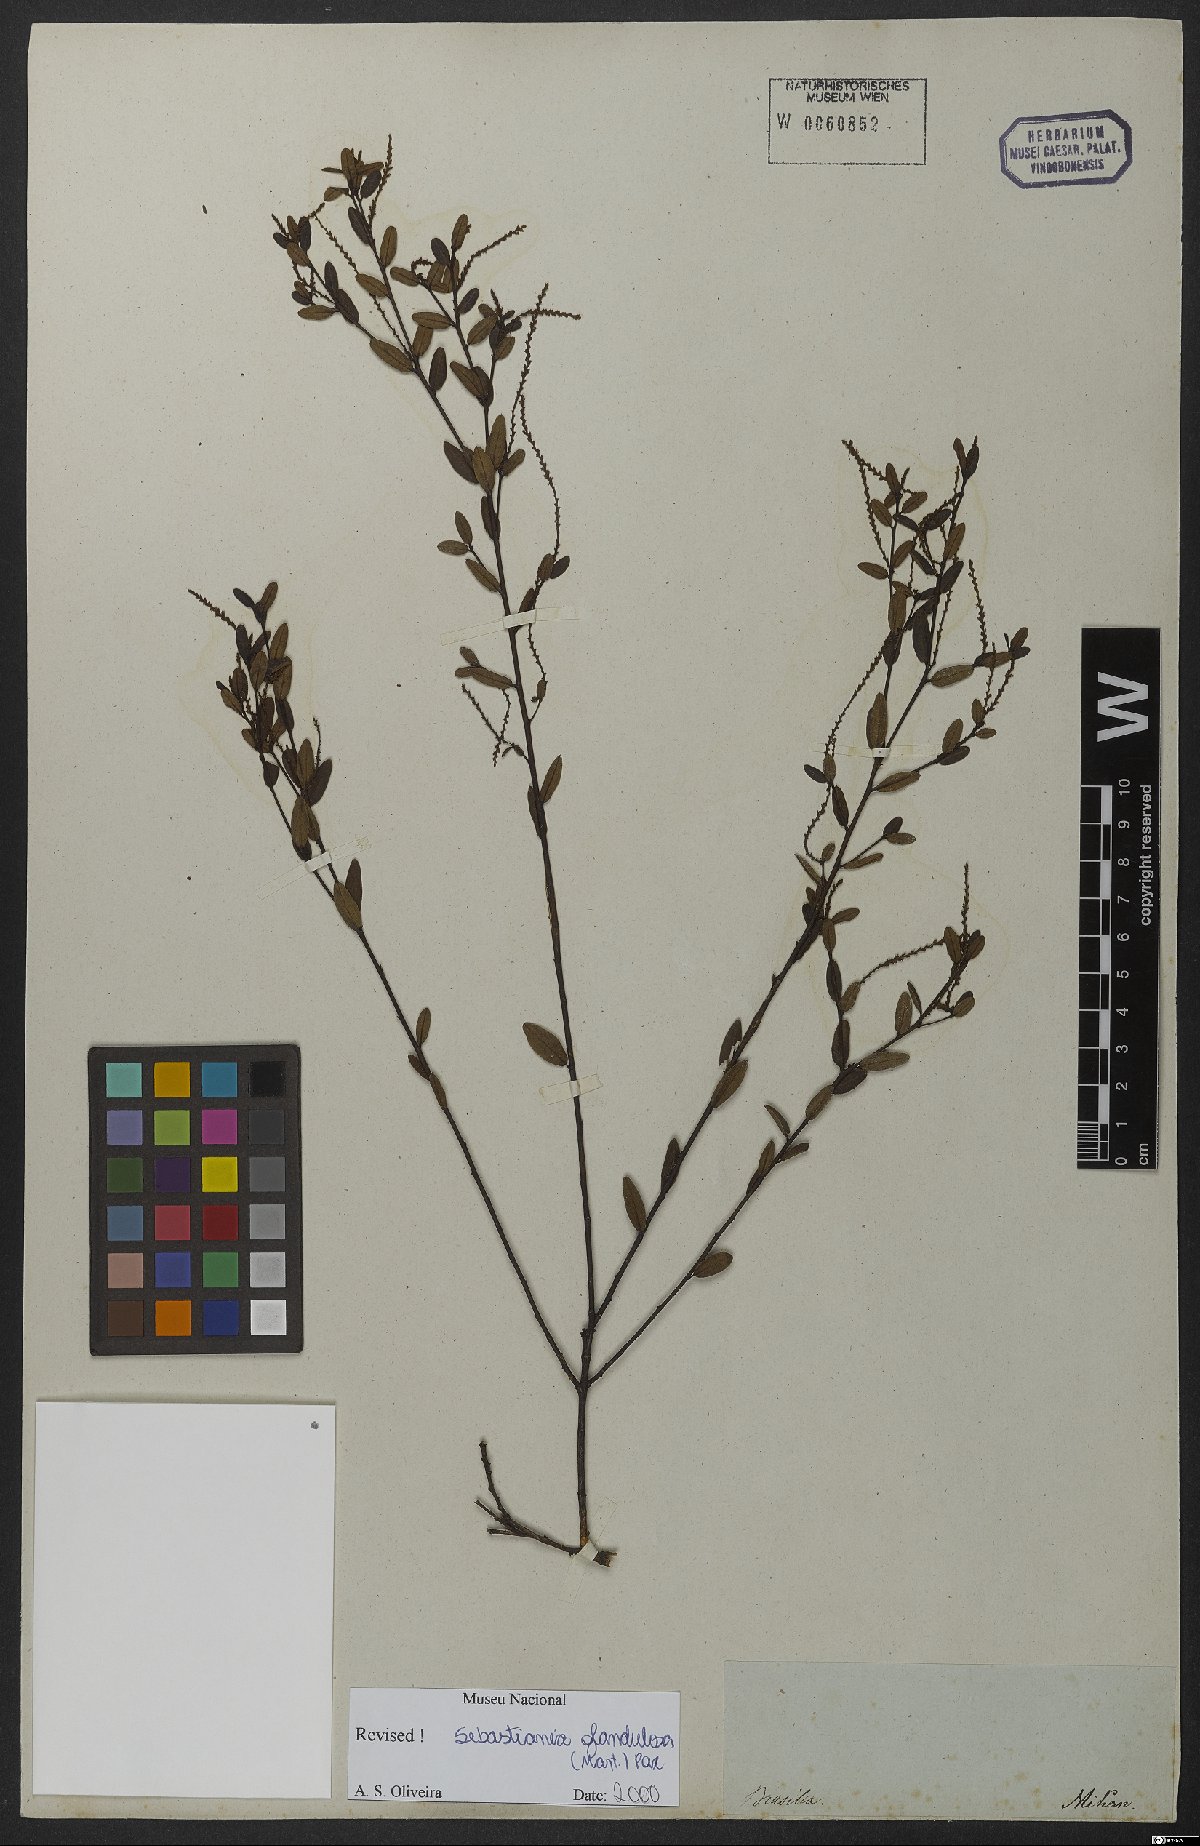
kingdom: Plantae
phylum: Tracheophyta
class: Magnoliopsida
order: Malpighiales
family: Euphorbiaceae
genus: Microstachys
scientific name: Microstachys corniculata
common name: Hato tejas
